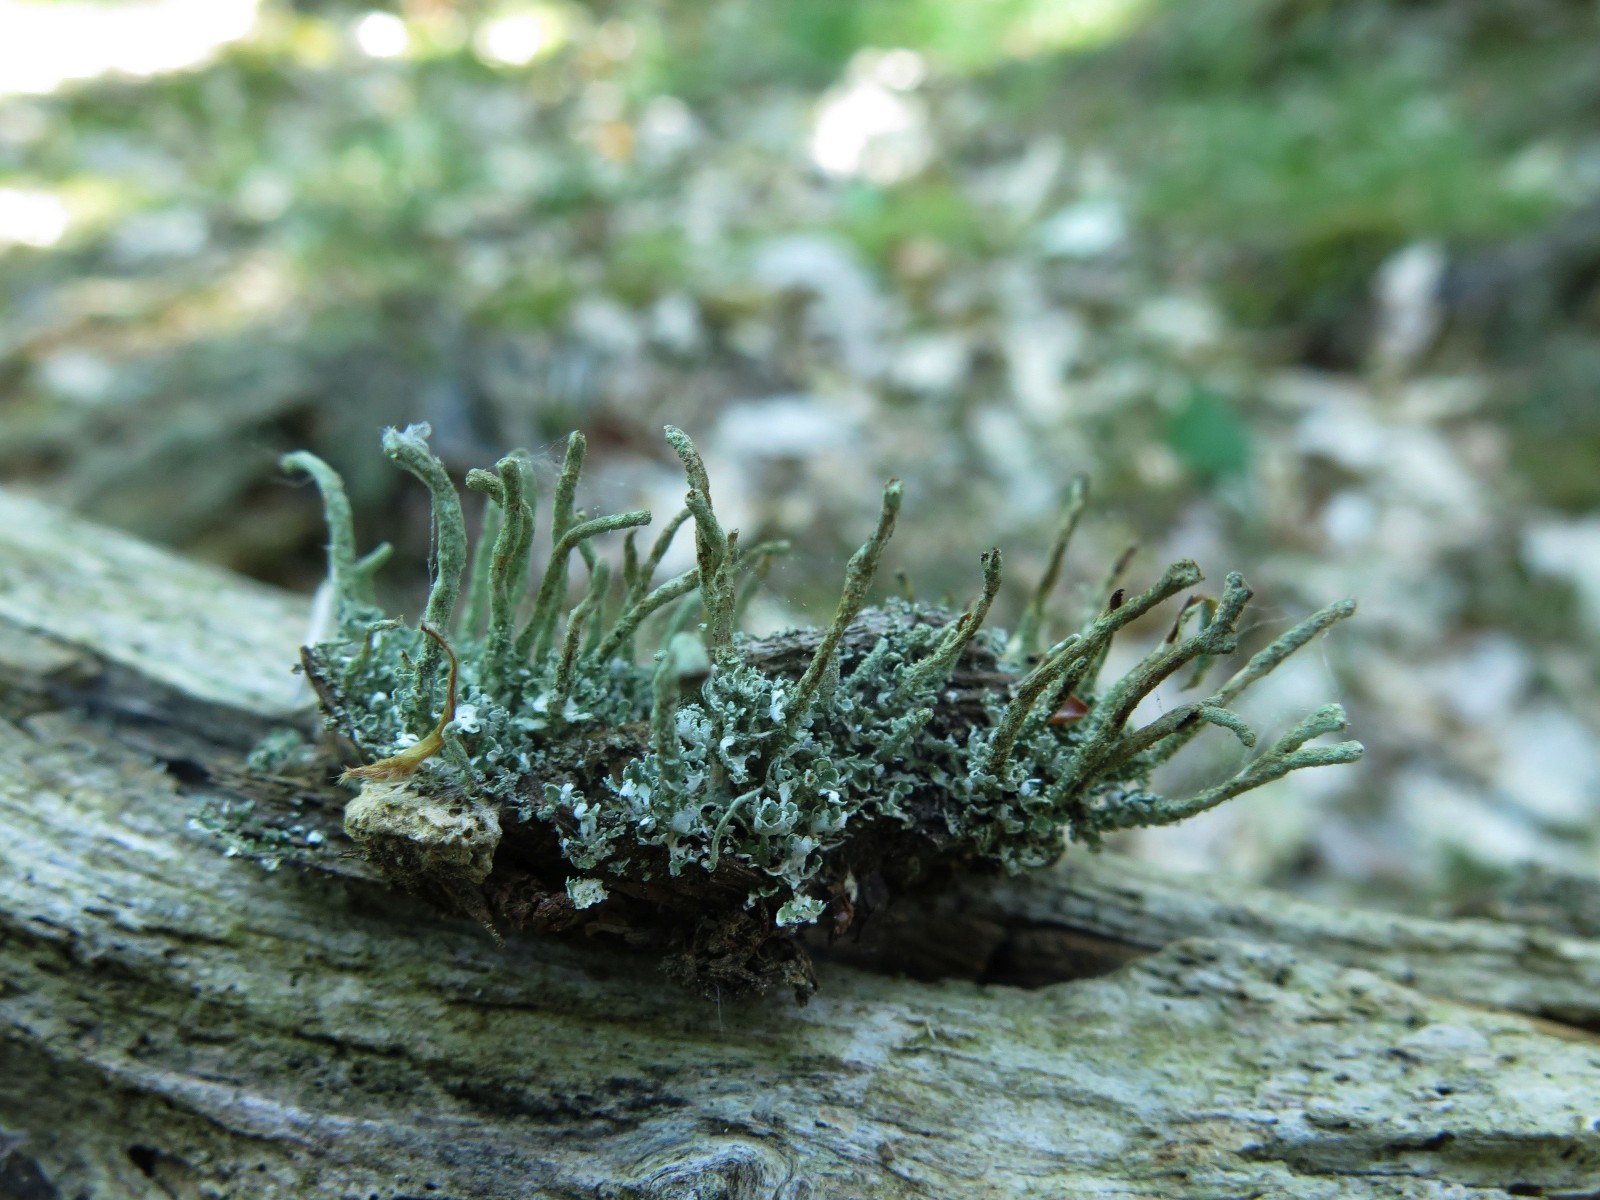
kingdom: Fungi
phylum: Ascomycota
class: Lecanoromycetes
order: Lecanorales
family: Cladoniaceae
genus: Cladonia
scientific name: Cladonia ochrochlora
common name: stød-bægerlav
